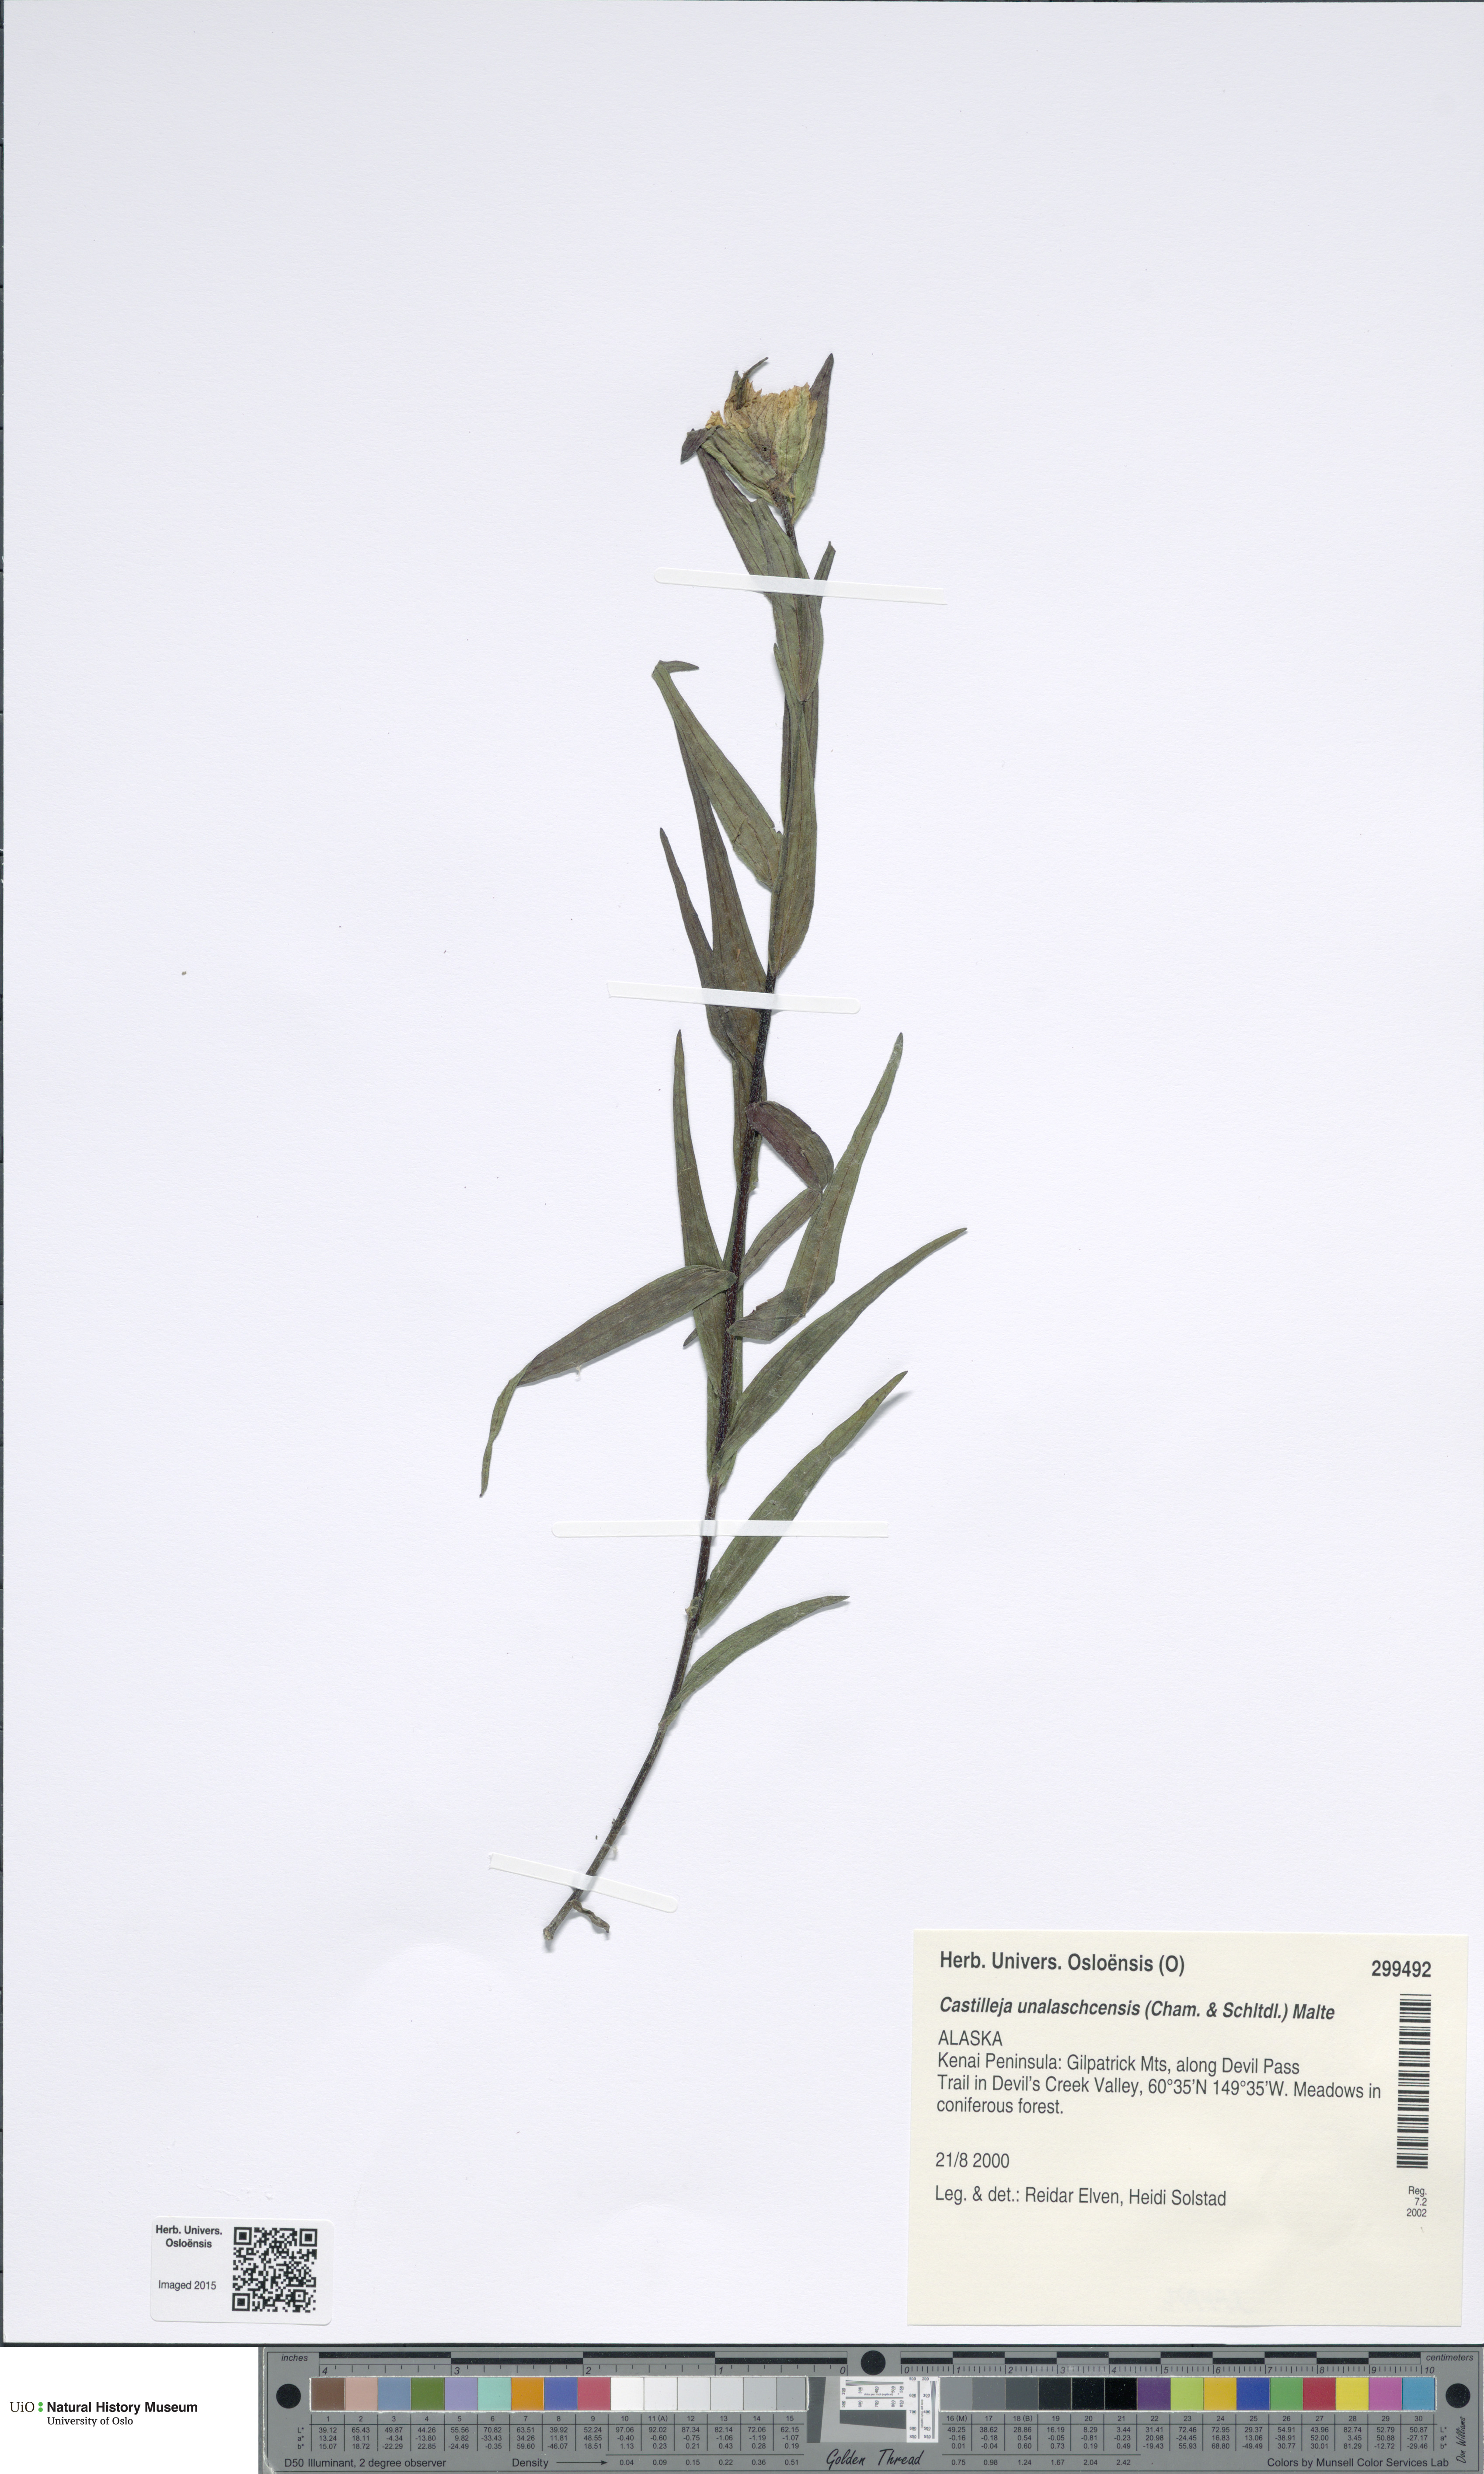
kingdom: Plantae
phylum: Tracheophyta
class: Magnoliopsida
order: Lamiales
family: Orobanchaceae
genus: Castilleja
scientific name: Castilleja unalaschcensis
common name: Unalaska paintbrush
